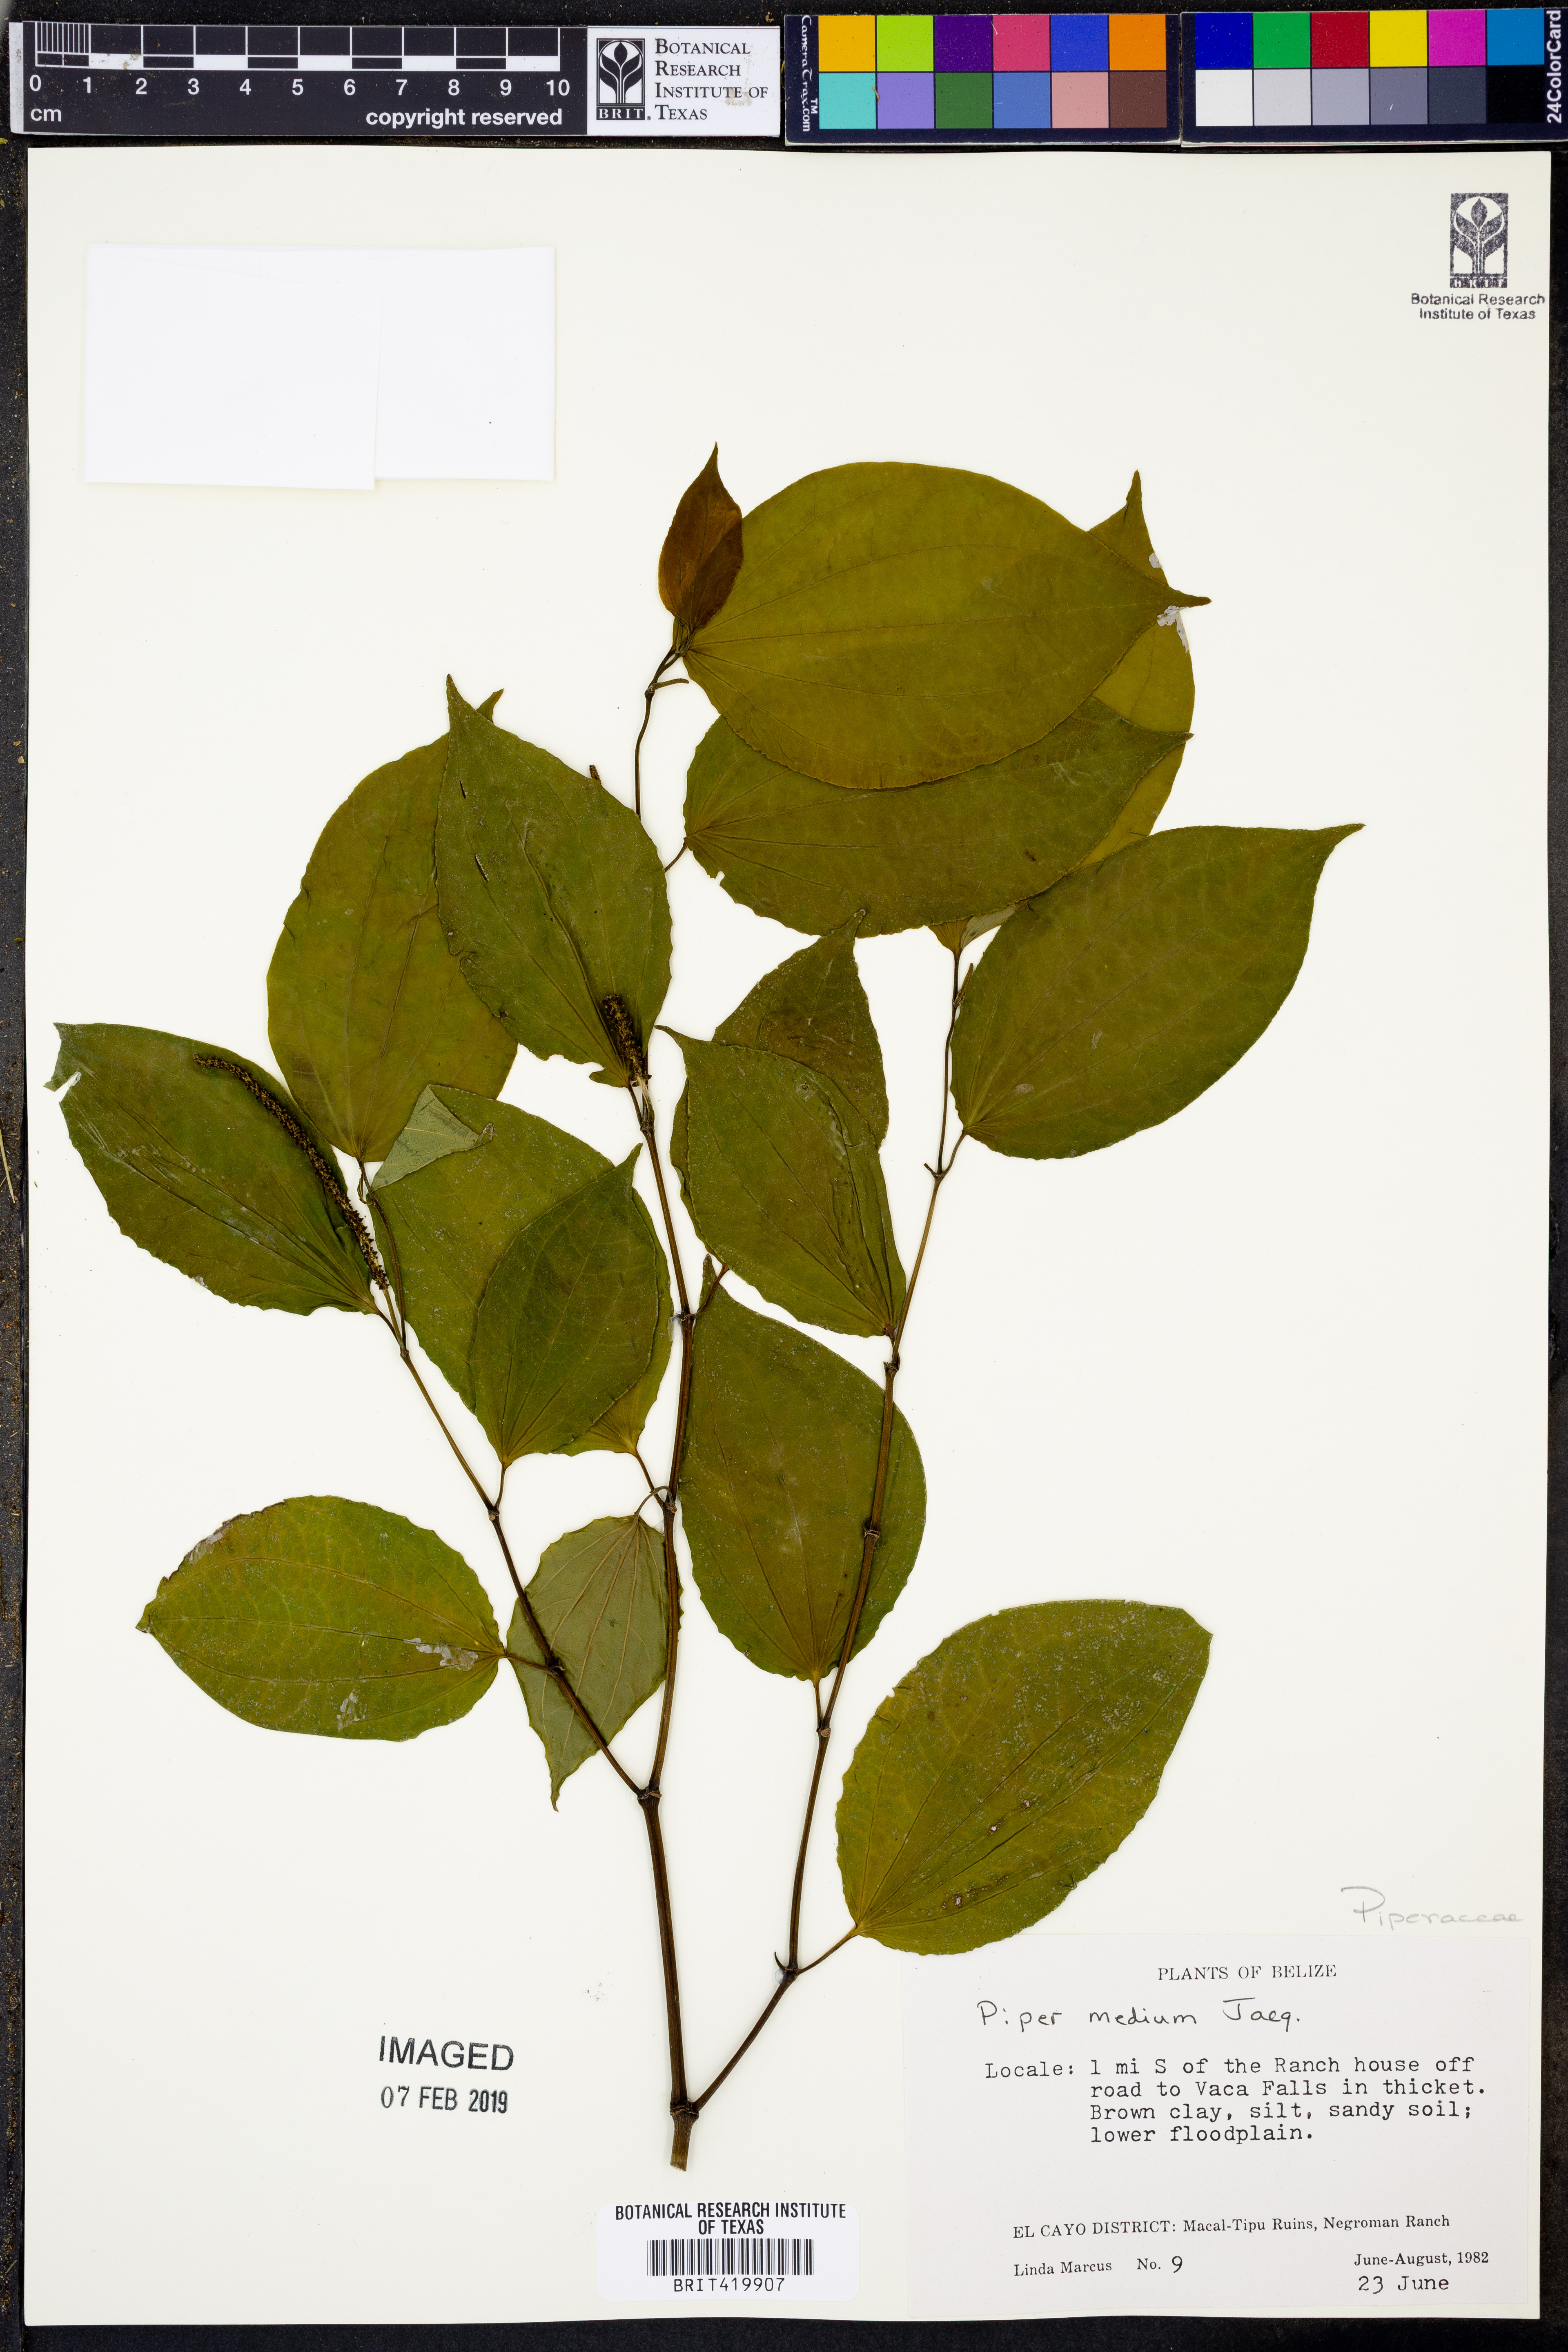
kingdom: Plantae
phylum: Tracheophyta
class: Magnoliopsida
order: Piperales
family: Piperaceae
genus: Piper
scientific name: Piper amalago
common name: Pepper-elder
